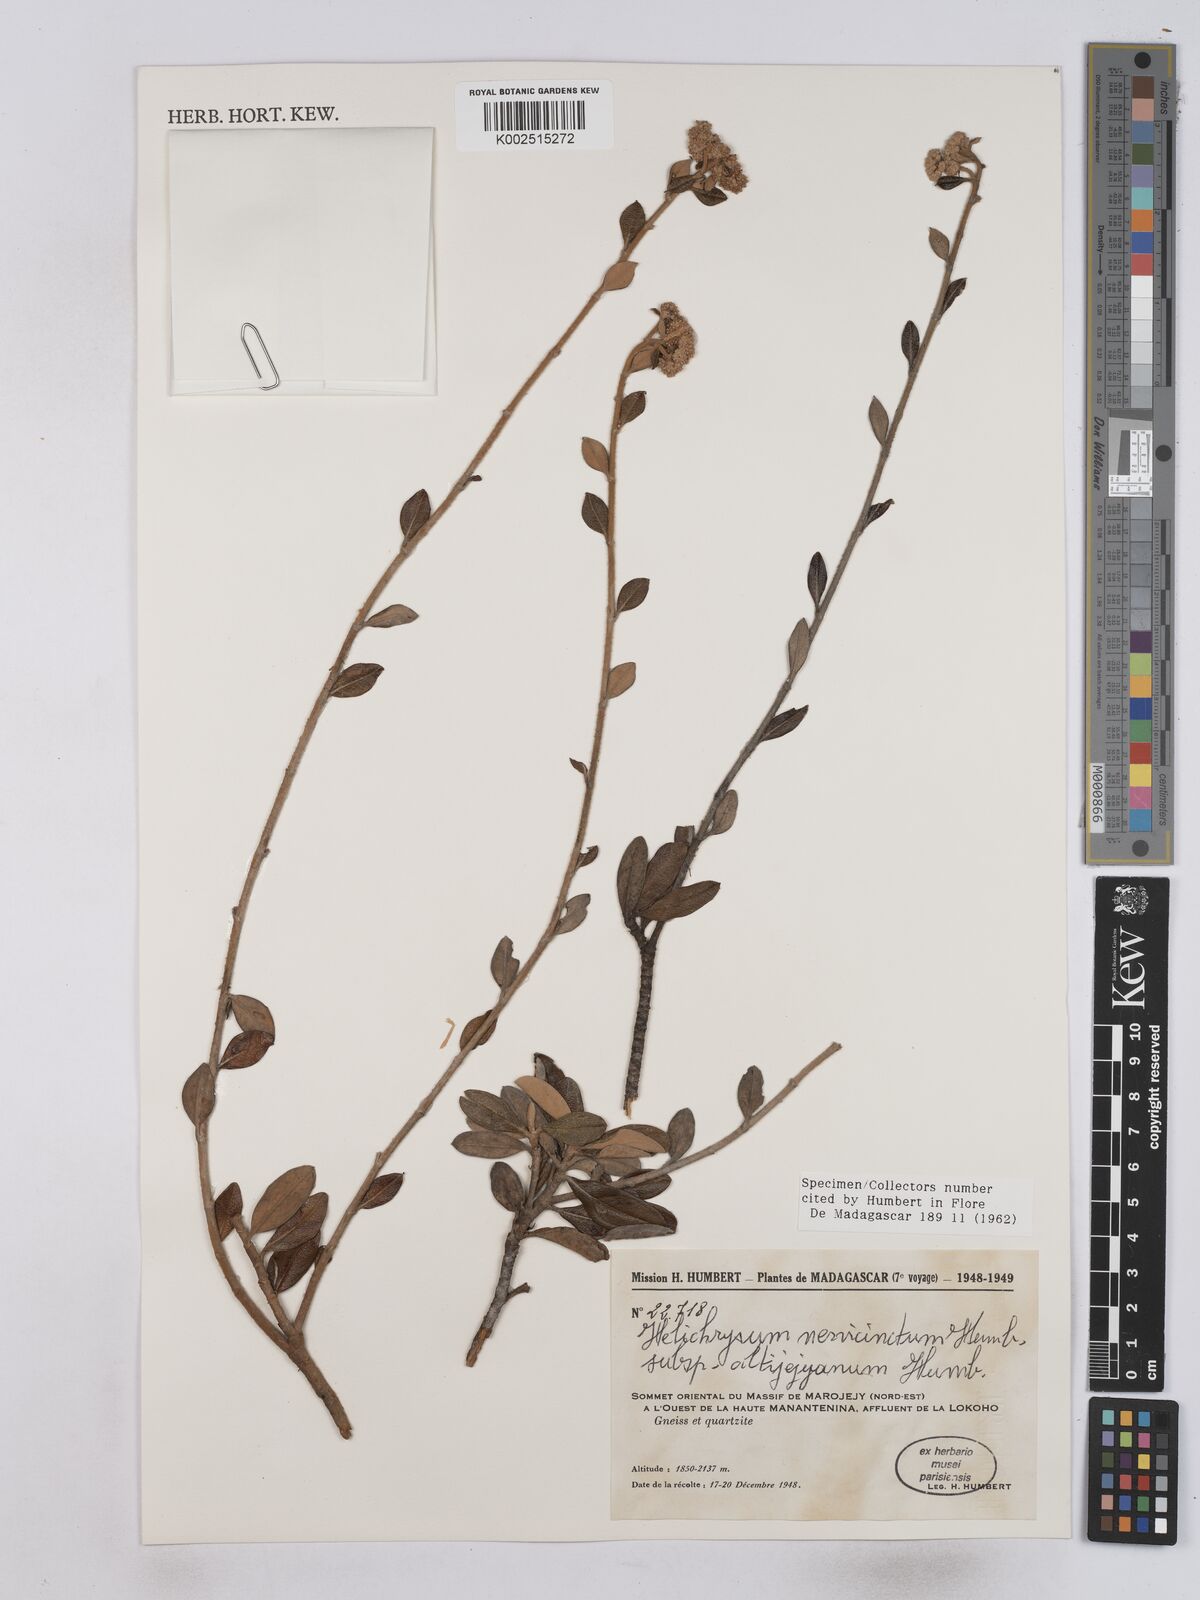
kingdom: Plantae
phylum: Tracheophyta
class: Magnoliopsida
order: Asterales
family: Asteraceae
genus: Helichrysum
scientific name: Helichrysum nervicinctum
